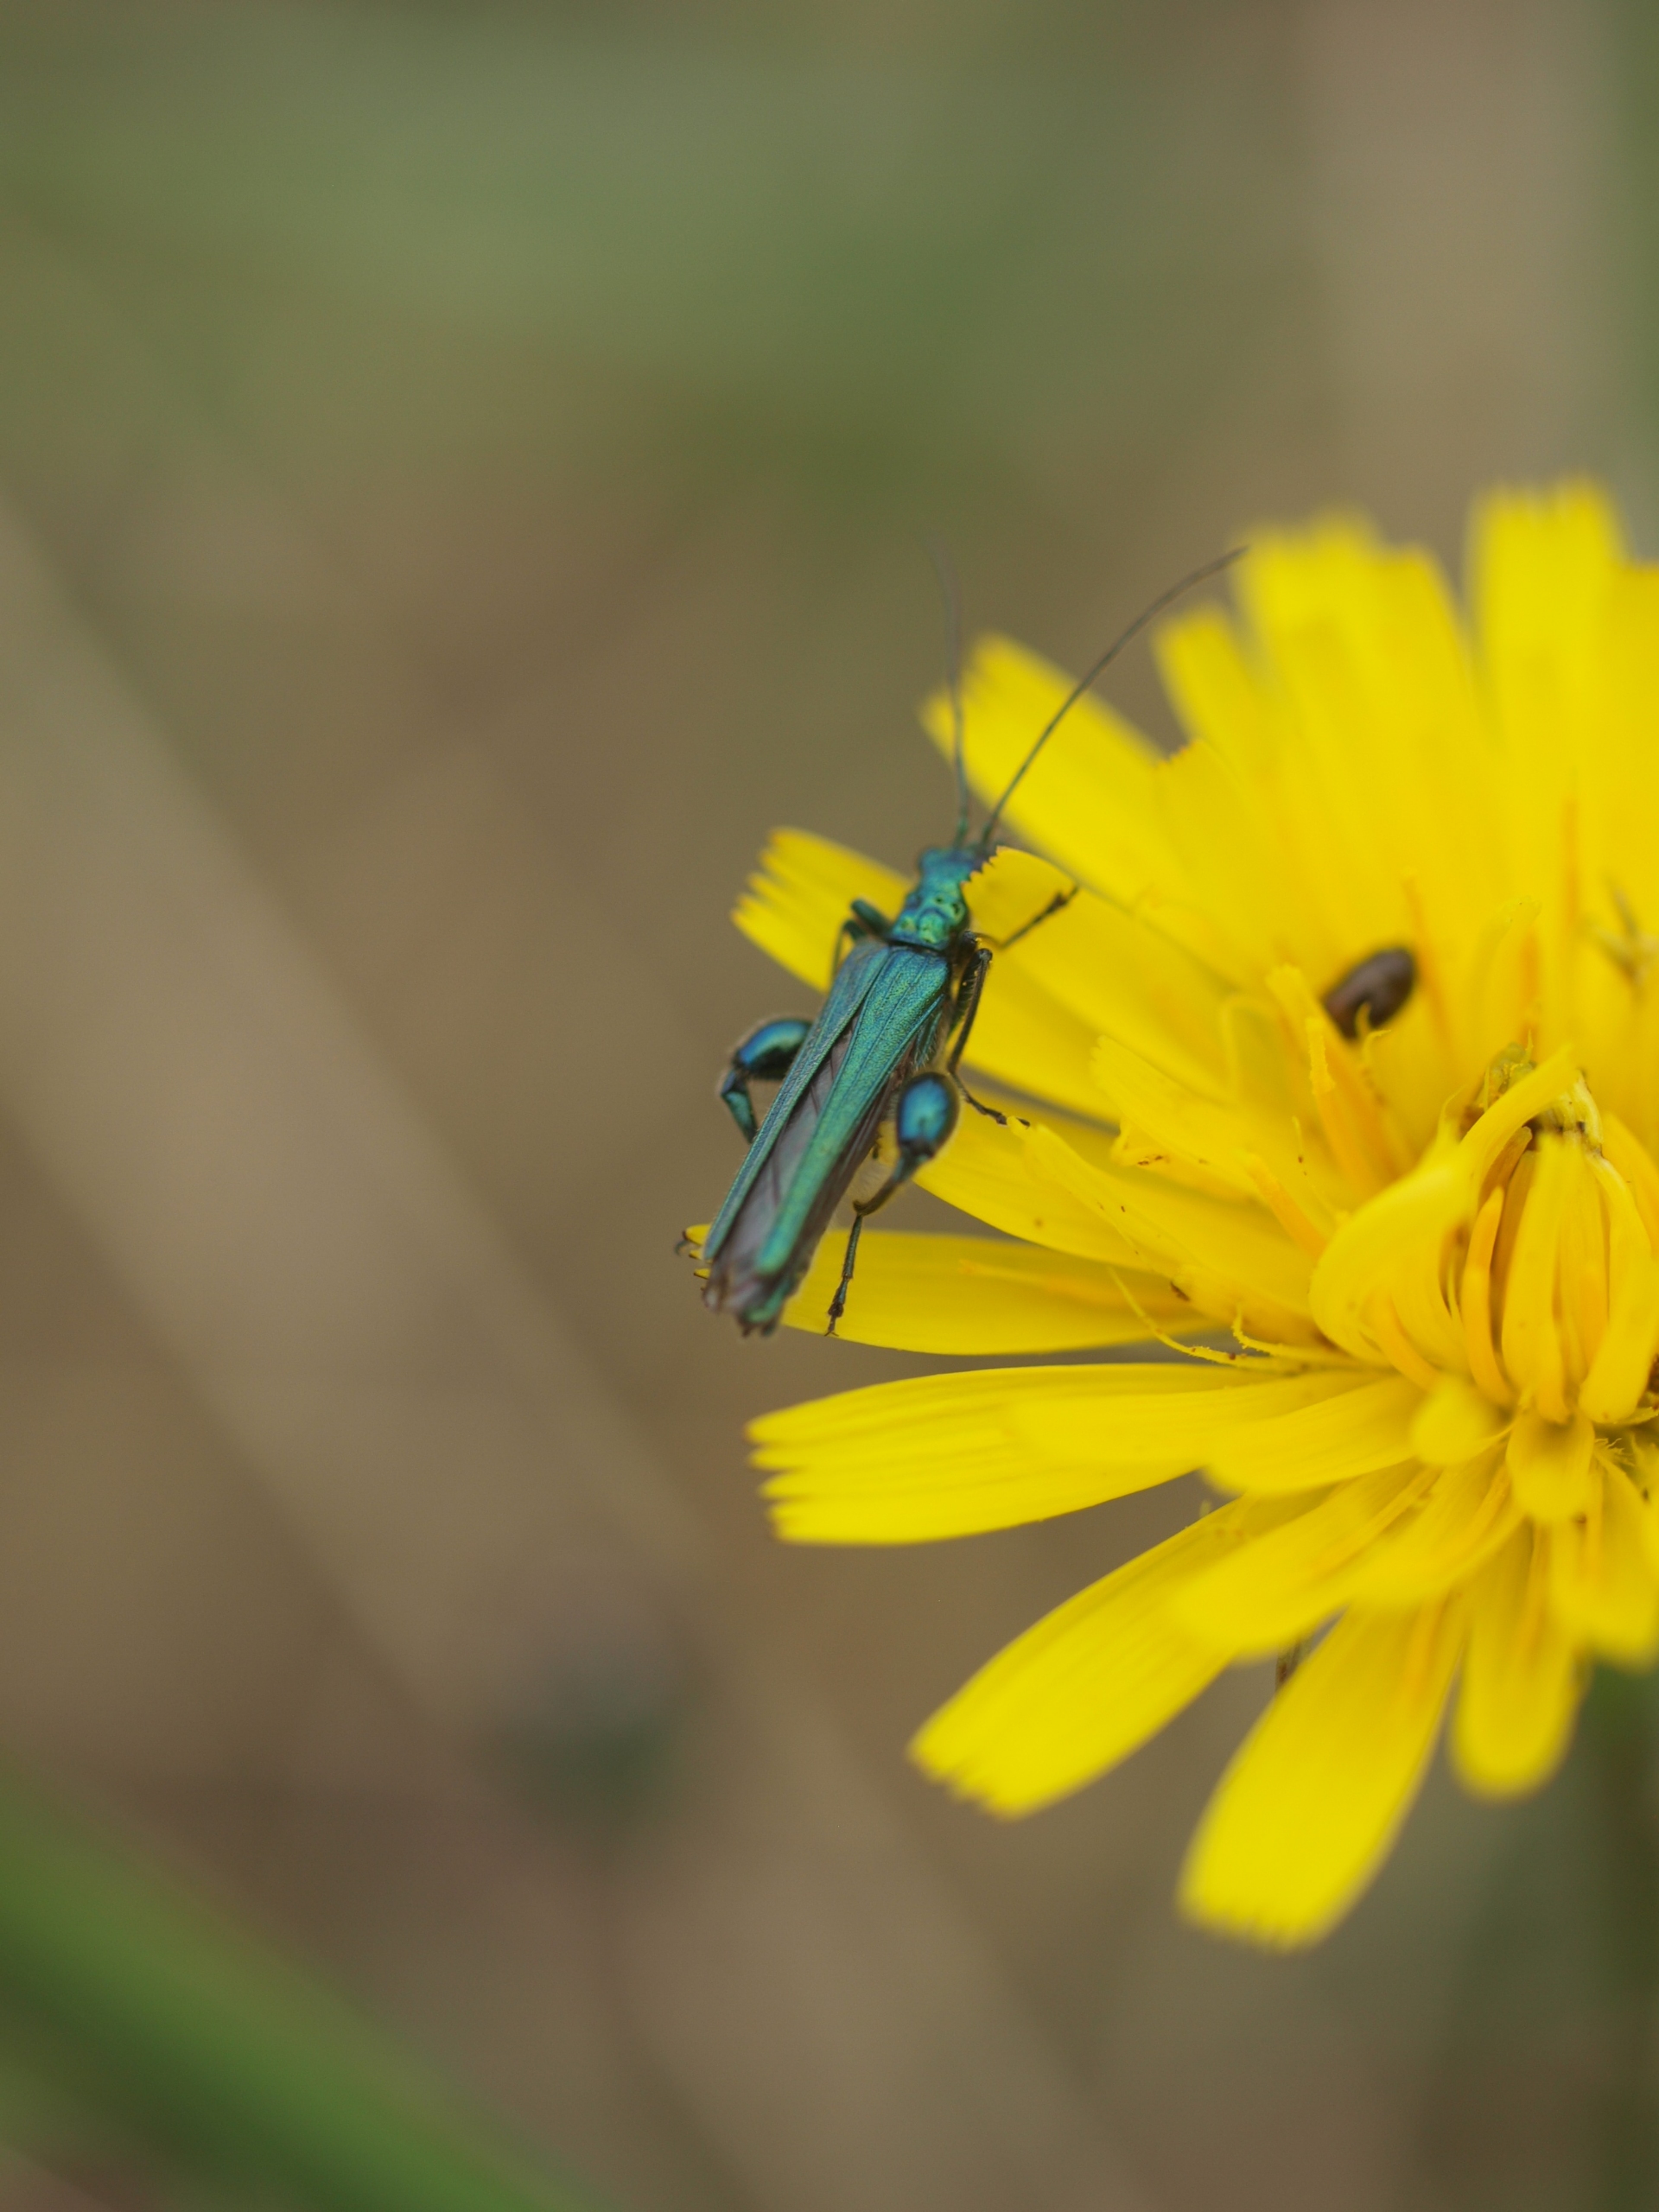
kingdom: Animalia
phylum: Arthropoda
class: Insecta
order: Coleoptera
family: Oedemeridae
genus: Oedemera
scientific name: Oedemera nobilis
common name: Tyklårssolbille
